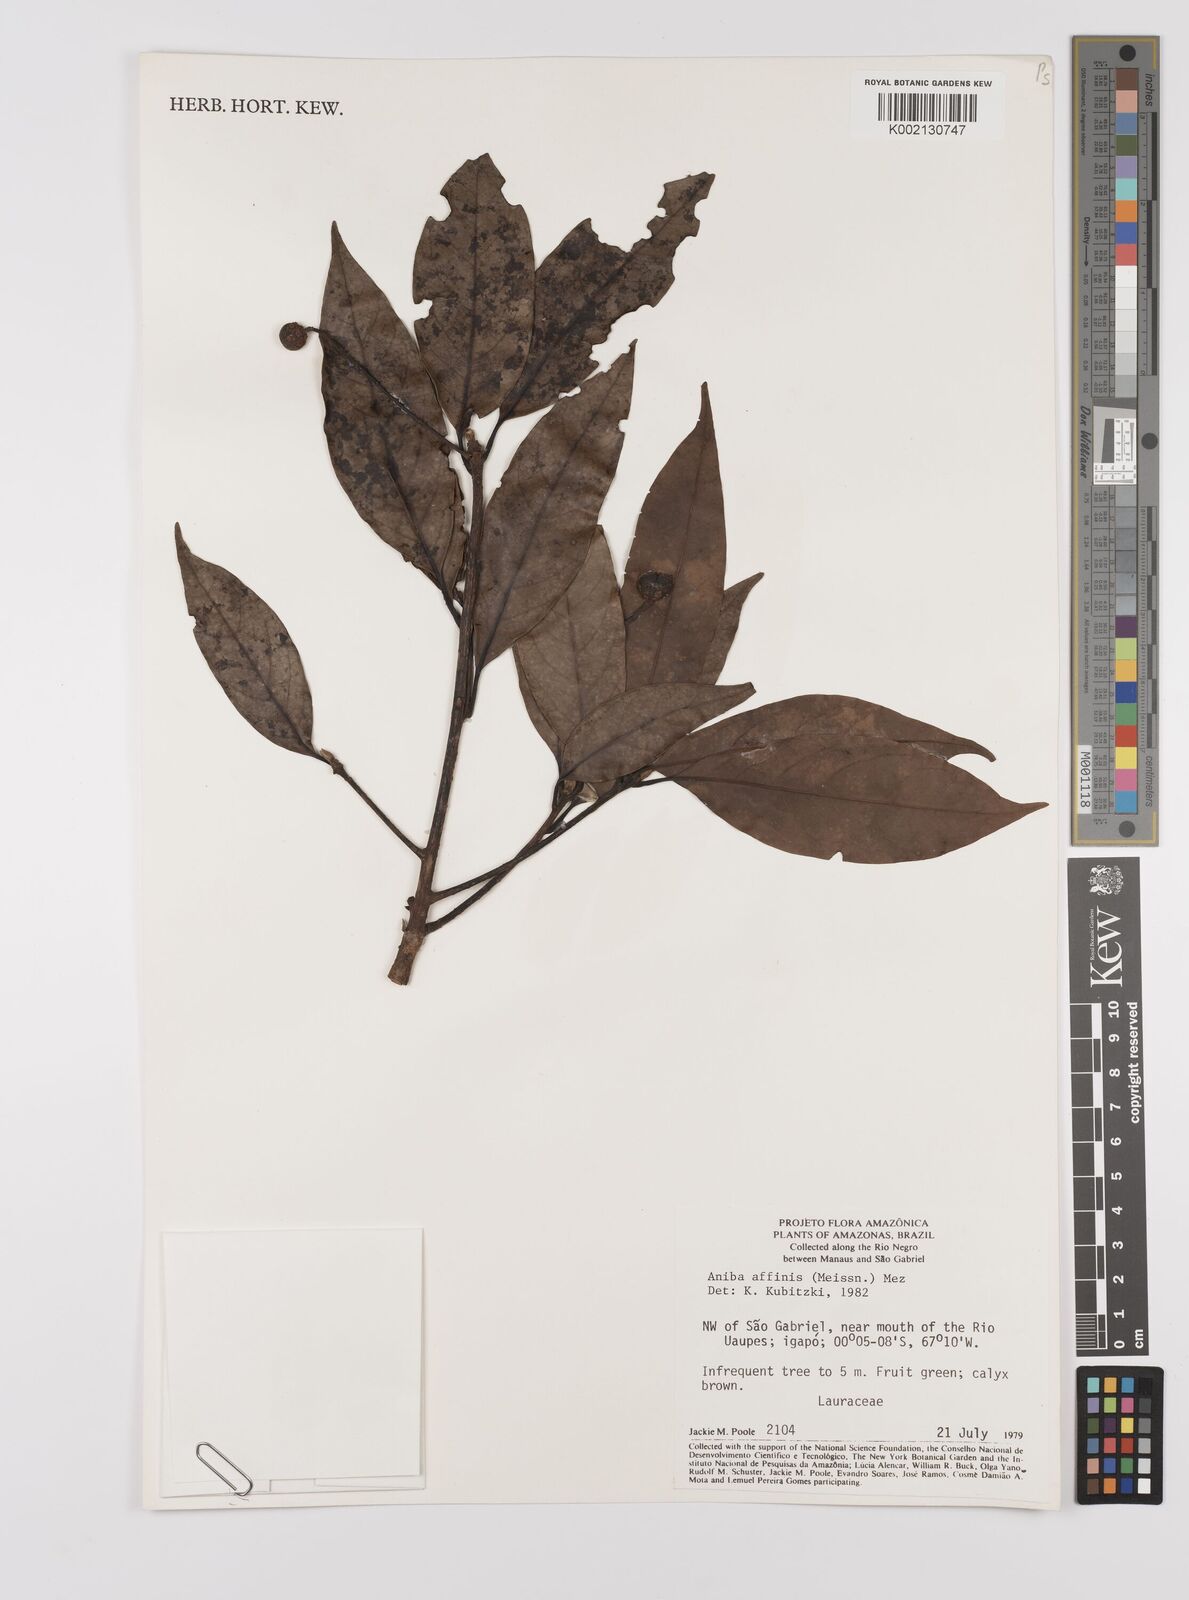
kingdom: Plantae
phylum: Tracheophyta
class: Magnoliopsida
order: Laurales
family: Lauraceae
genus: Aniba
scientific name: Aniba affinis
